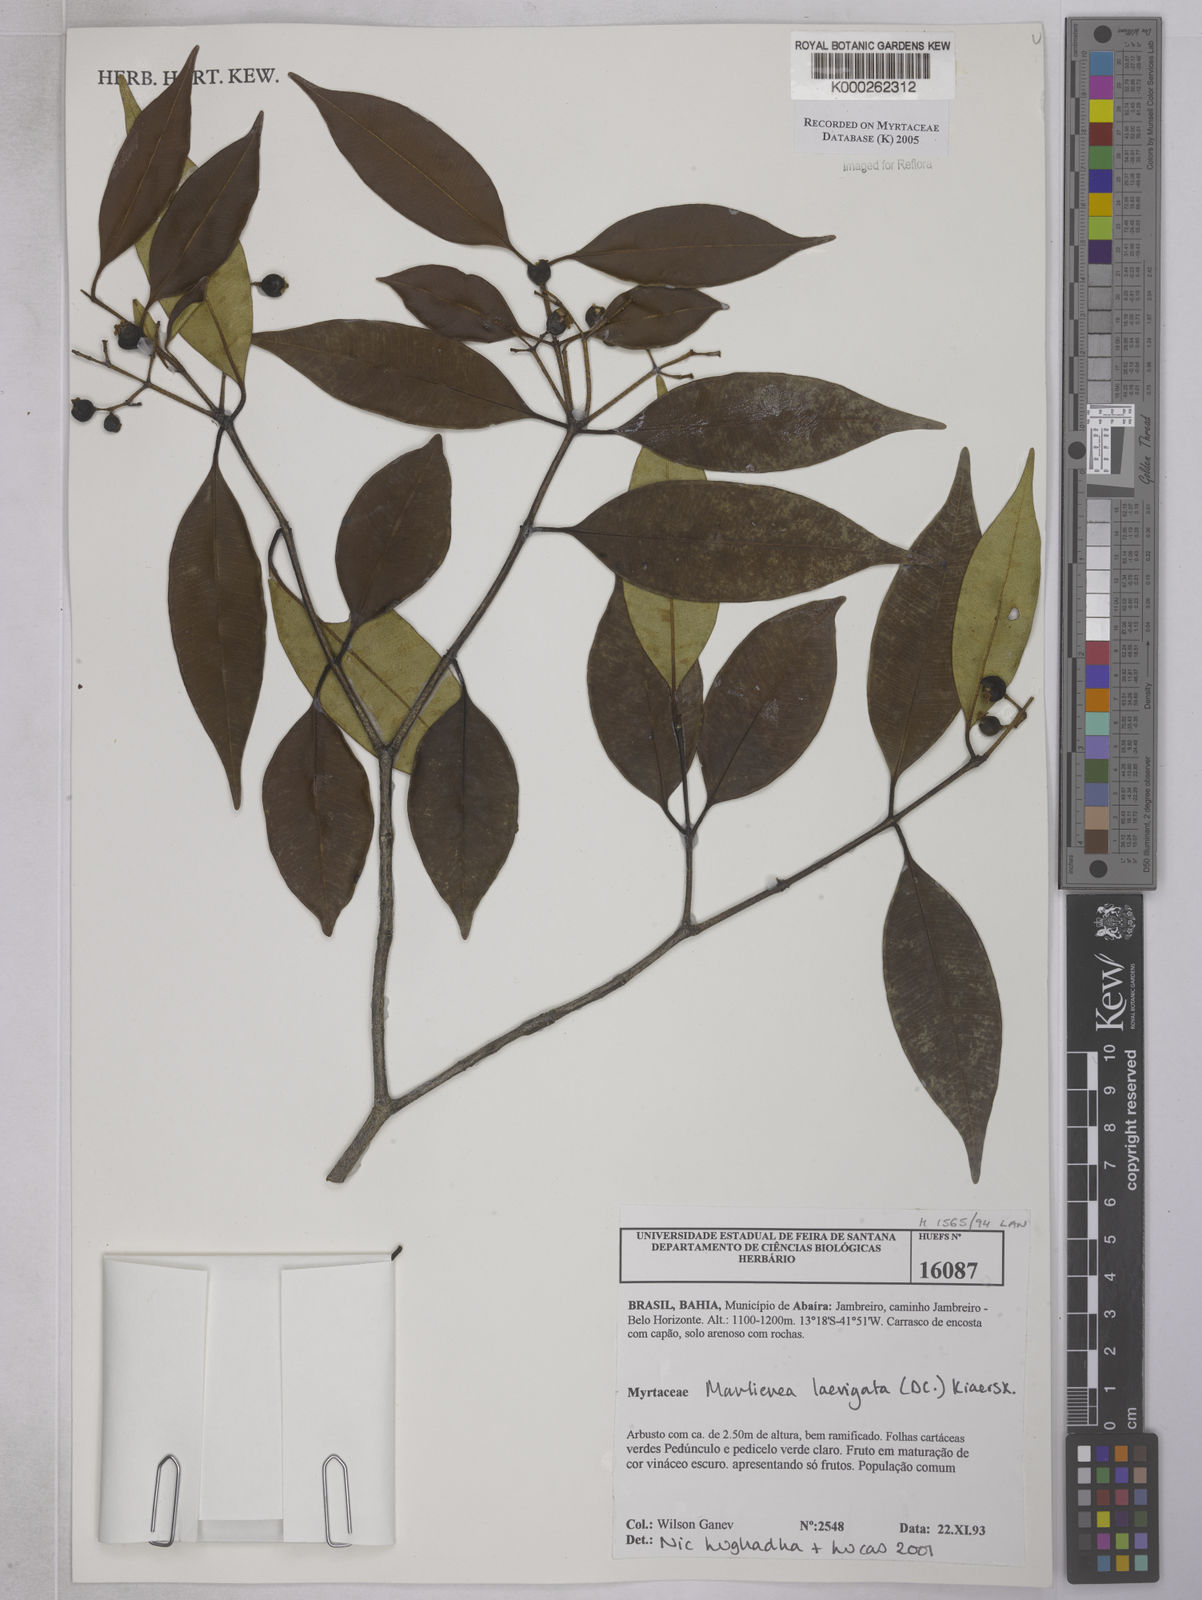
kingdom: Plantae
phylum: Tracheophyta
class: Magnoliopsida
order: Myrtales
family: Myrtaceae
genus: Myrcia
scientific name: Myrcia multipunctata
